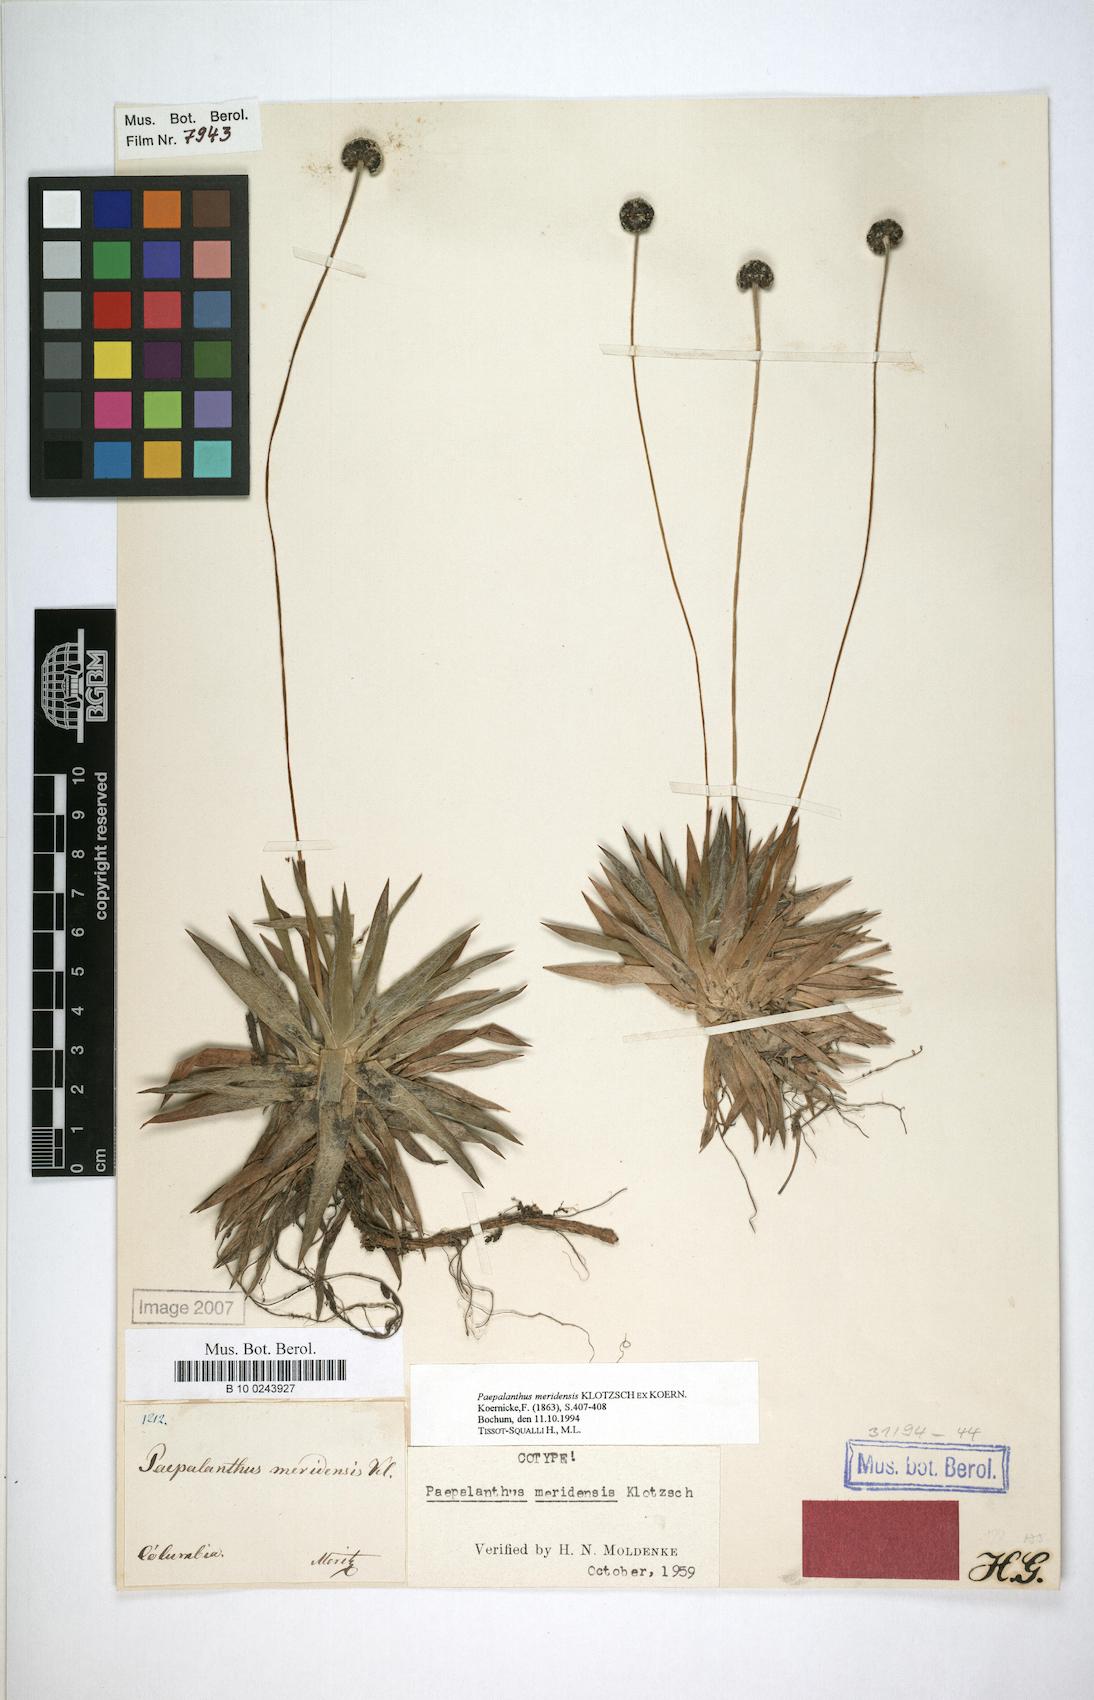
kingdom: Plantae
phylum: Tracheophyta
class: Liliopsida
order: Poales
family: Eriocaulaceae
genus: Paepalanthus
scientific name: Paepalanthus meridensis
